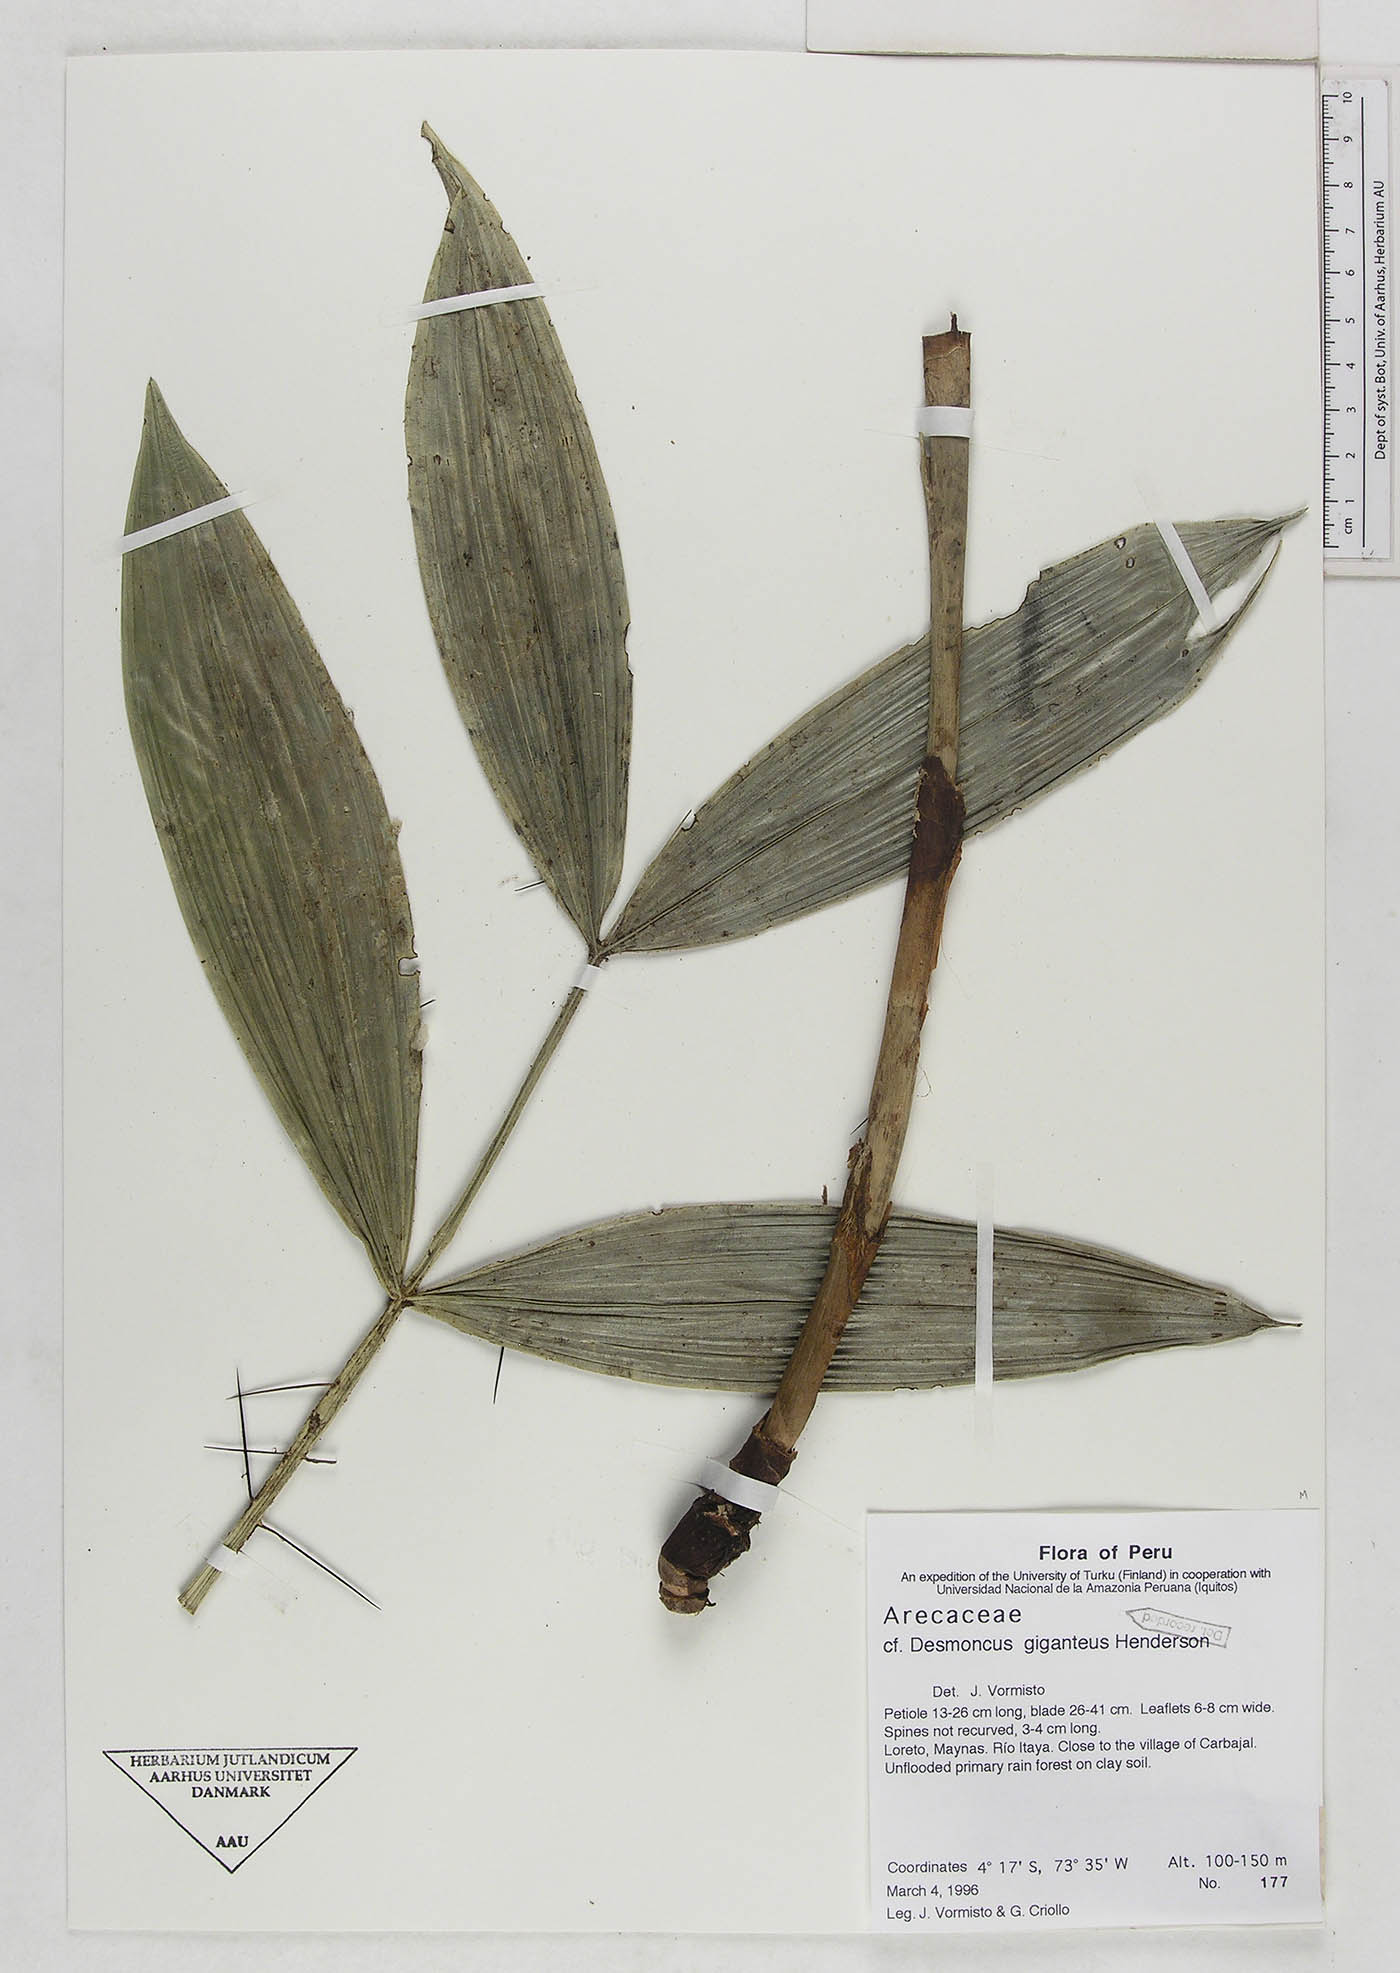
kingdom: Plantae
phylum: Tracheophyta
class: Liliopsida
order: Arecales
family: Arecaceae
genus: Desmoncus
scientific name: Desmoncus giganteus
